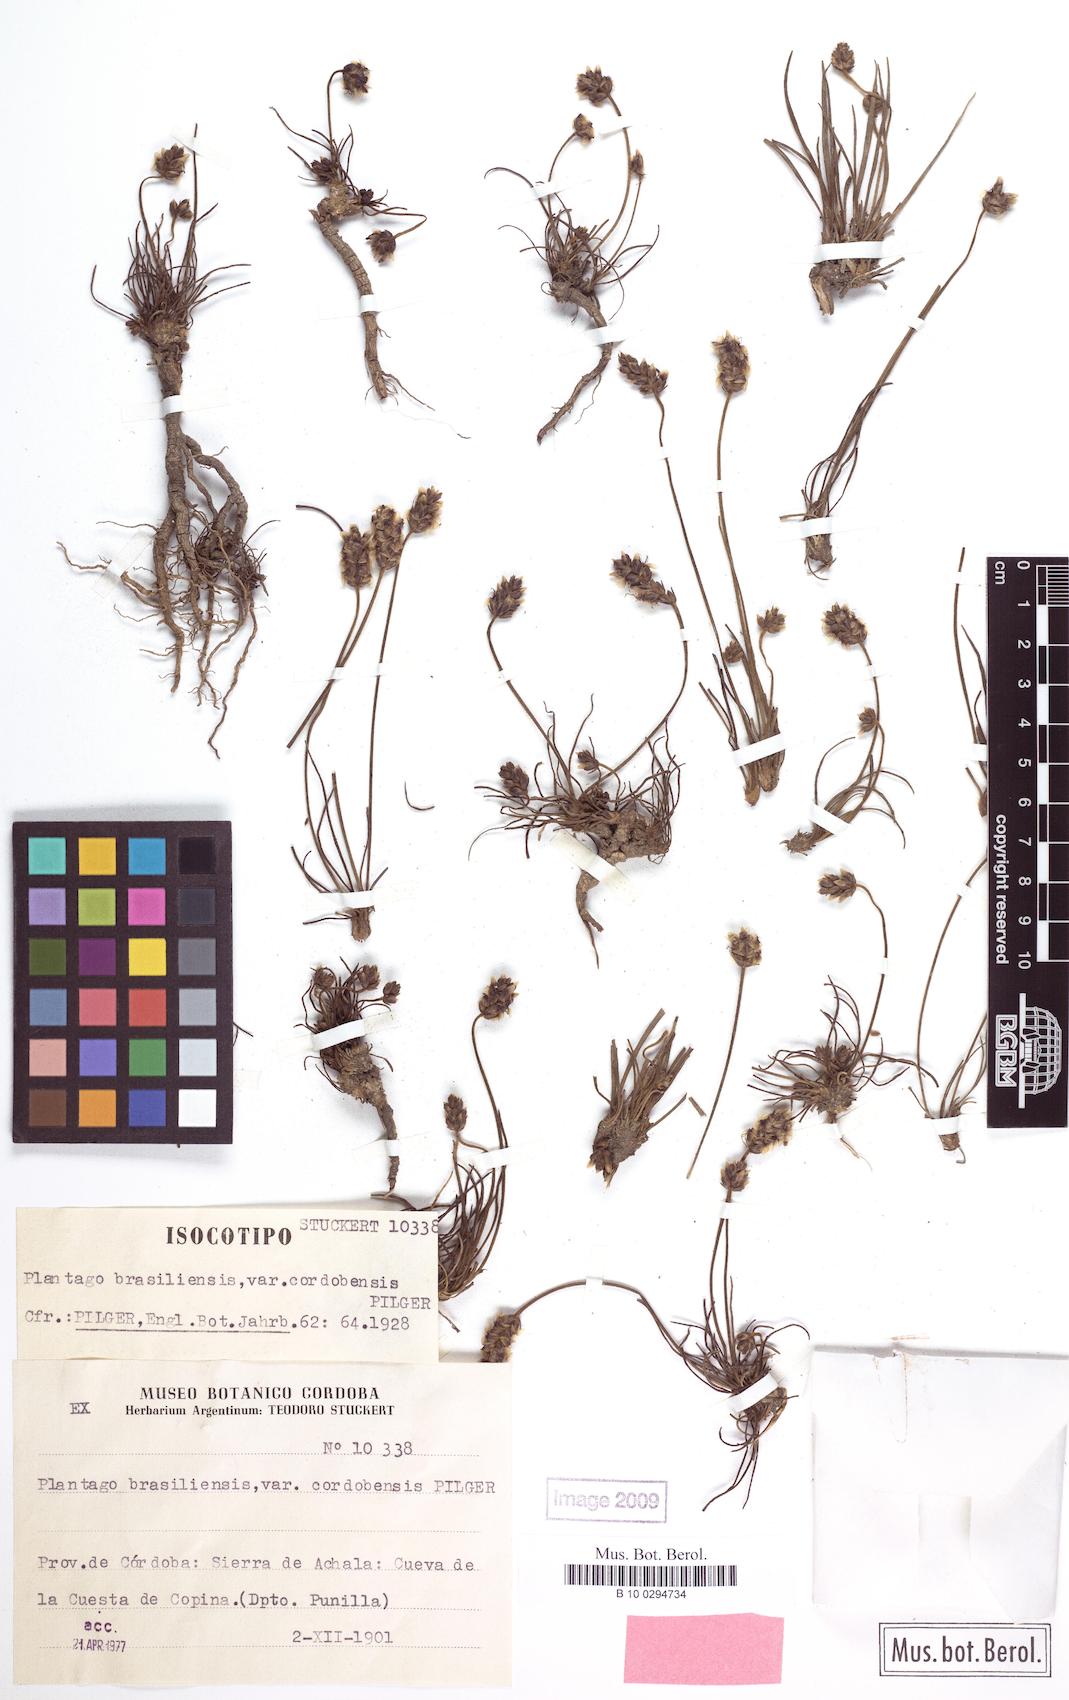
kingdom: Plantae
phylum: Tracheophyta
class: Magnoliopsida
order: Lamiales
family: Plantaginaceae
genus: Plantago
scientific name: Plantago brasiliensis
